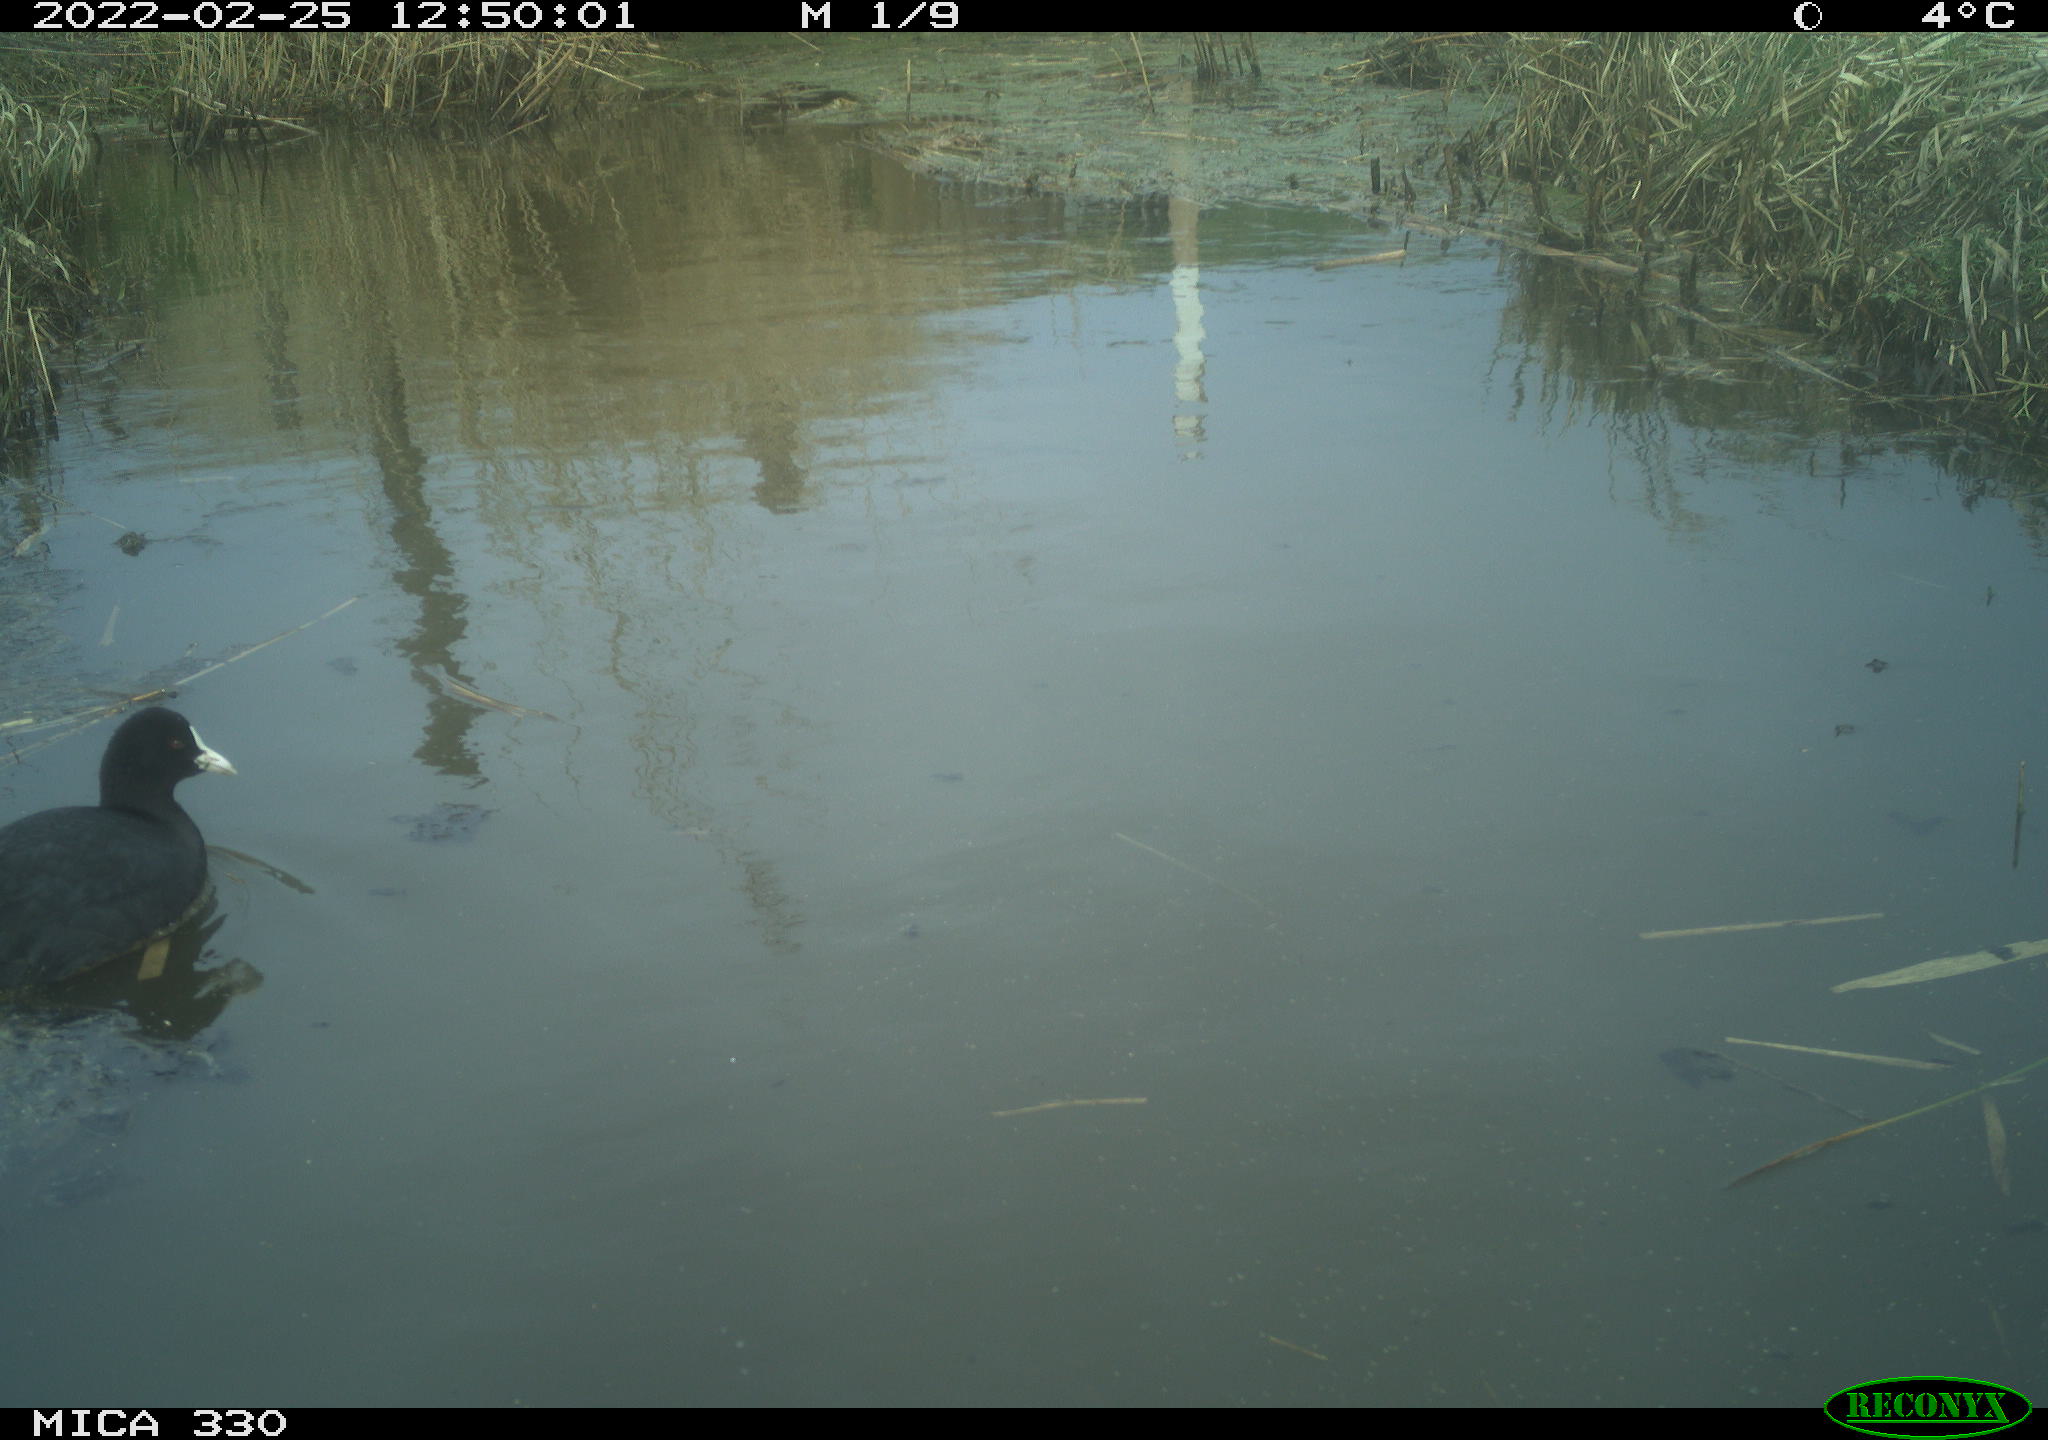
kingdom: Animalia
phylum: Chordata
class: Aves
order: Gruiformes
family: Rallidae
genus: Fulica
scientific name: Fulica atra
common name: Eurasian coot
